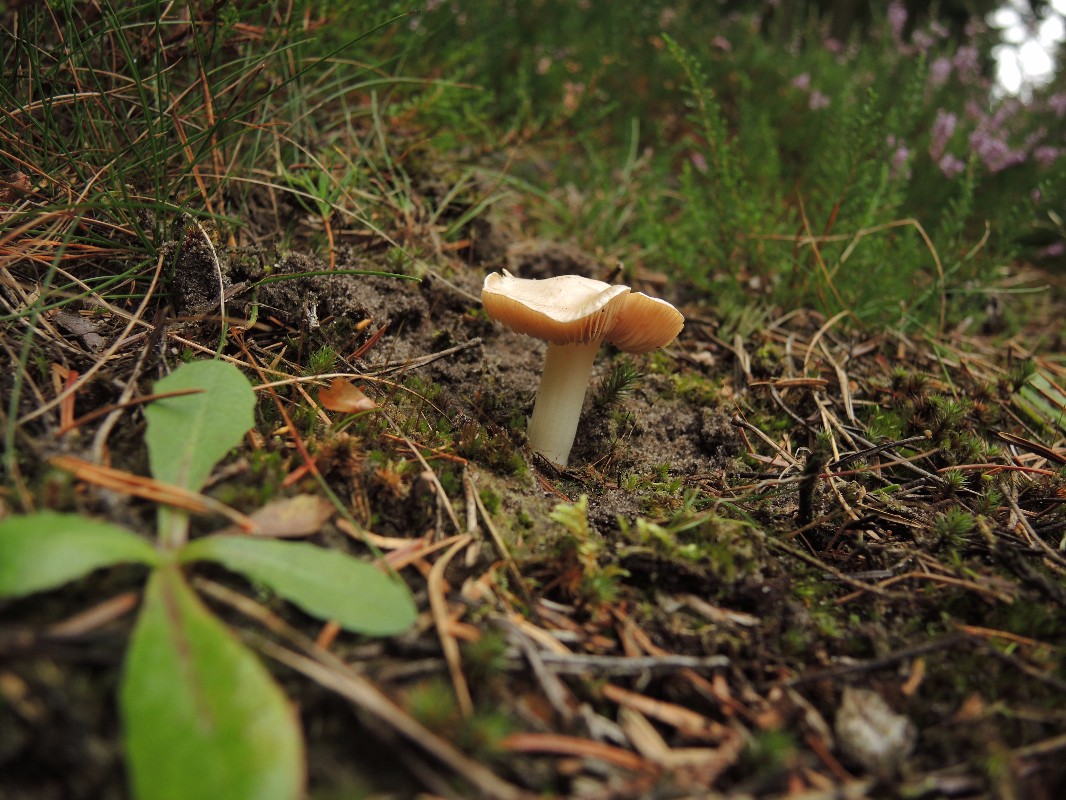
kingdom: Fungi
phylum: Basidiomycota
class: Agaricomycetes
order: Agaricales
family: Inocybaceae
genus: Inocybe
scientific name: Inocybe sambucina
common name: hyldehvid trævlhat
